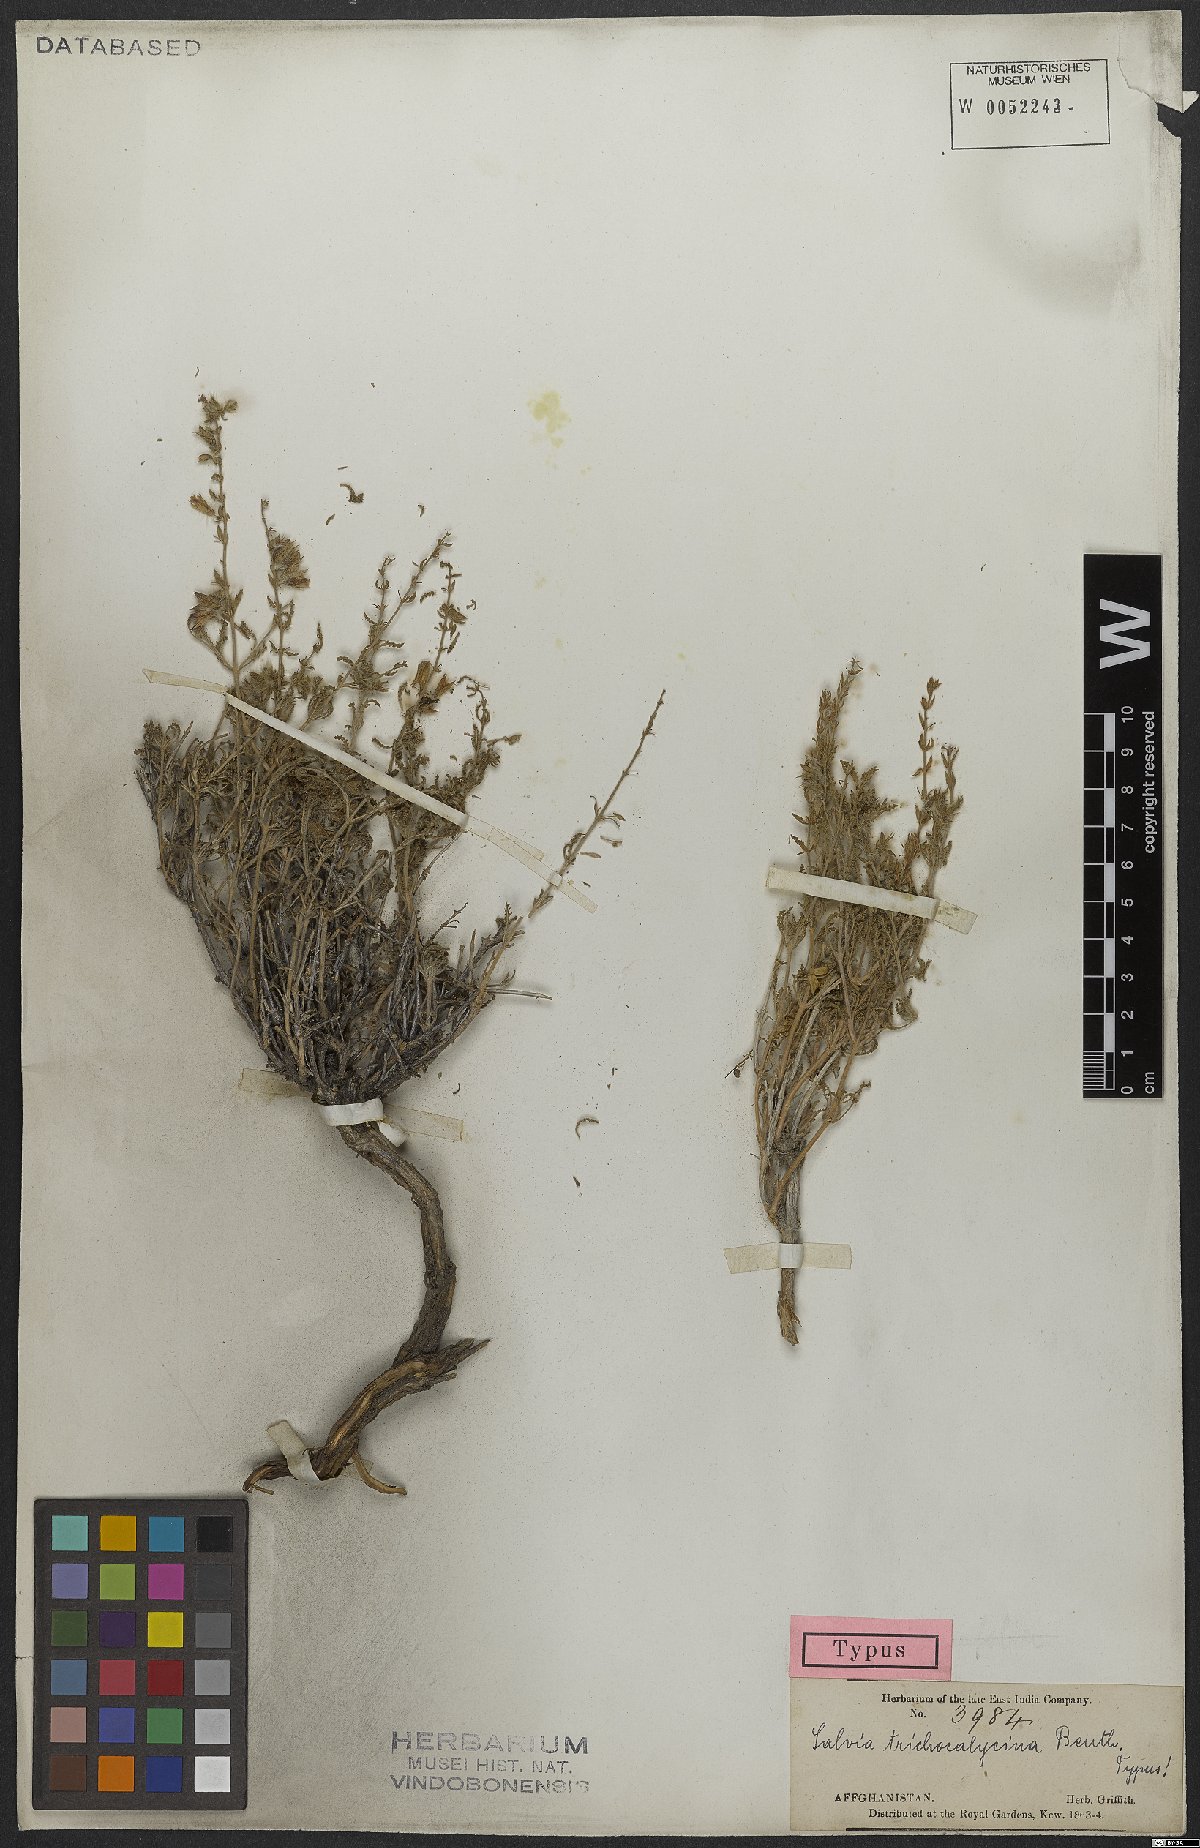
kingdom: Plantae
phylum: Tracheophyta
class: Magnoliopsida
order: Lamiales
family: Lamiaceae
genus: Salvia
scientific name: Salvia trichocalycina
